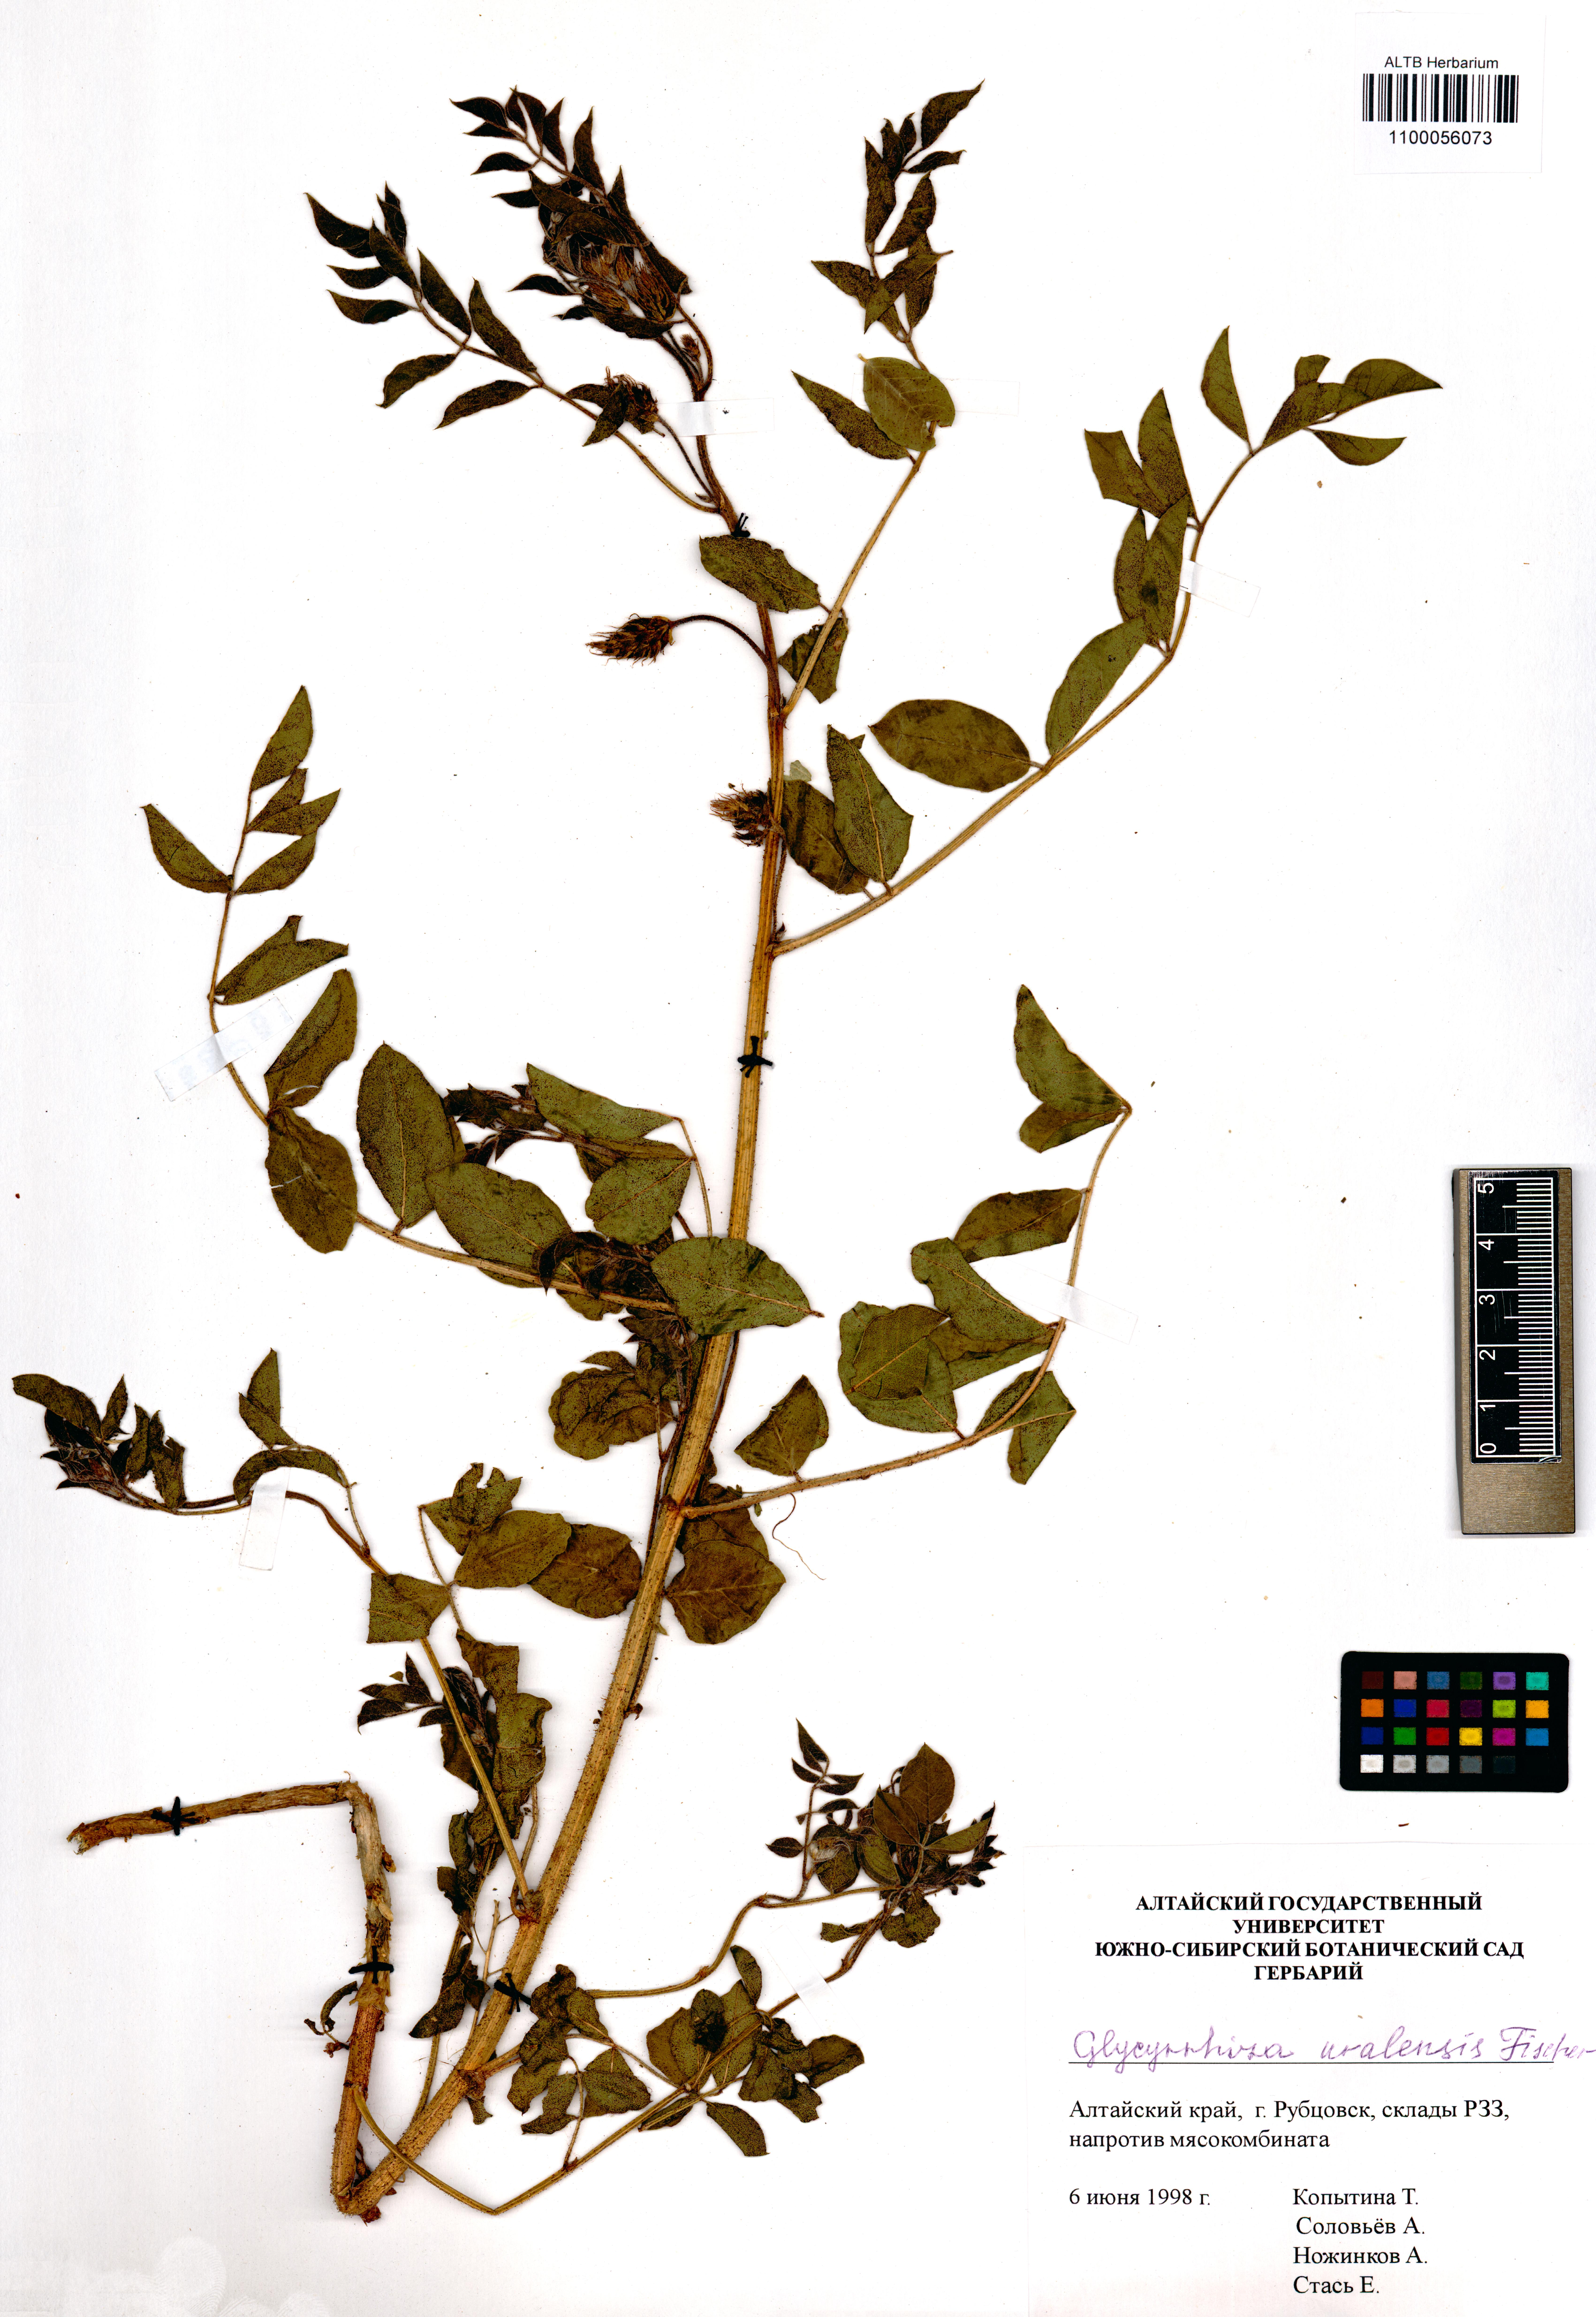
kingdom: Plantae
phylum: Tracheophyta
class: Magnoliopsida
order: Fabales
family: Fabaceae
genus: Glycyrrhiza
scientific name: Glycyrrhiza uralensis
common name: Chinese licorice
